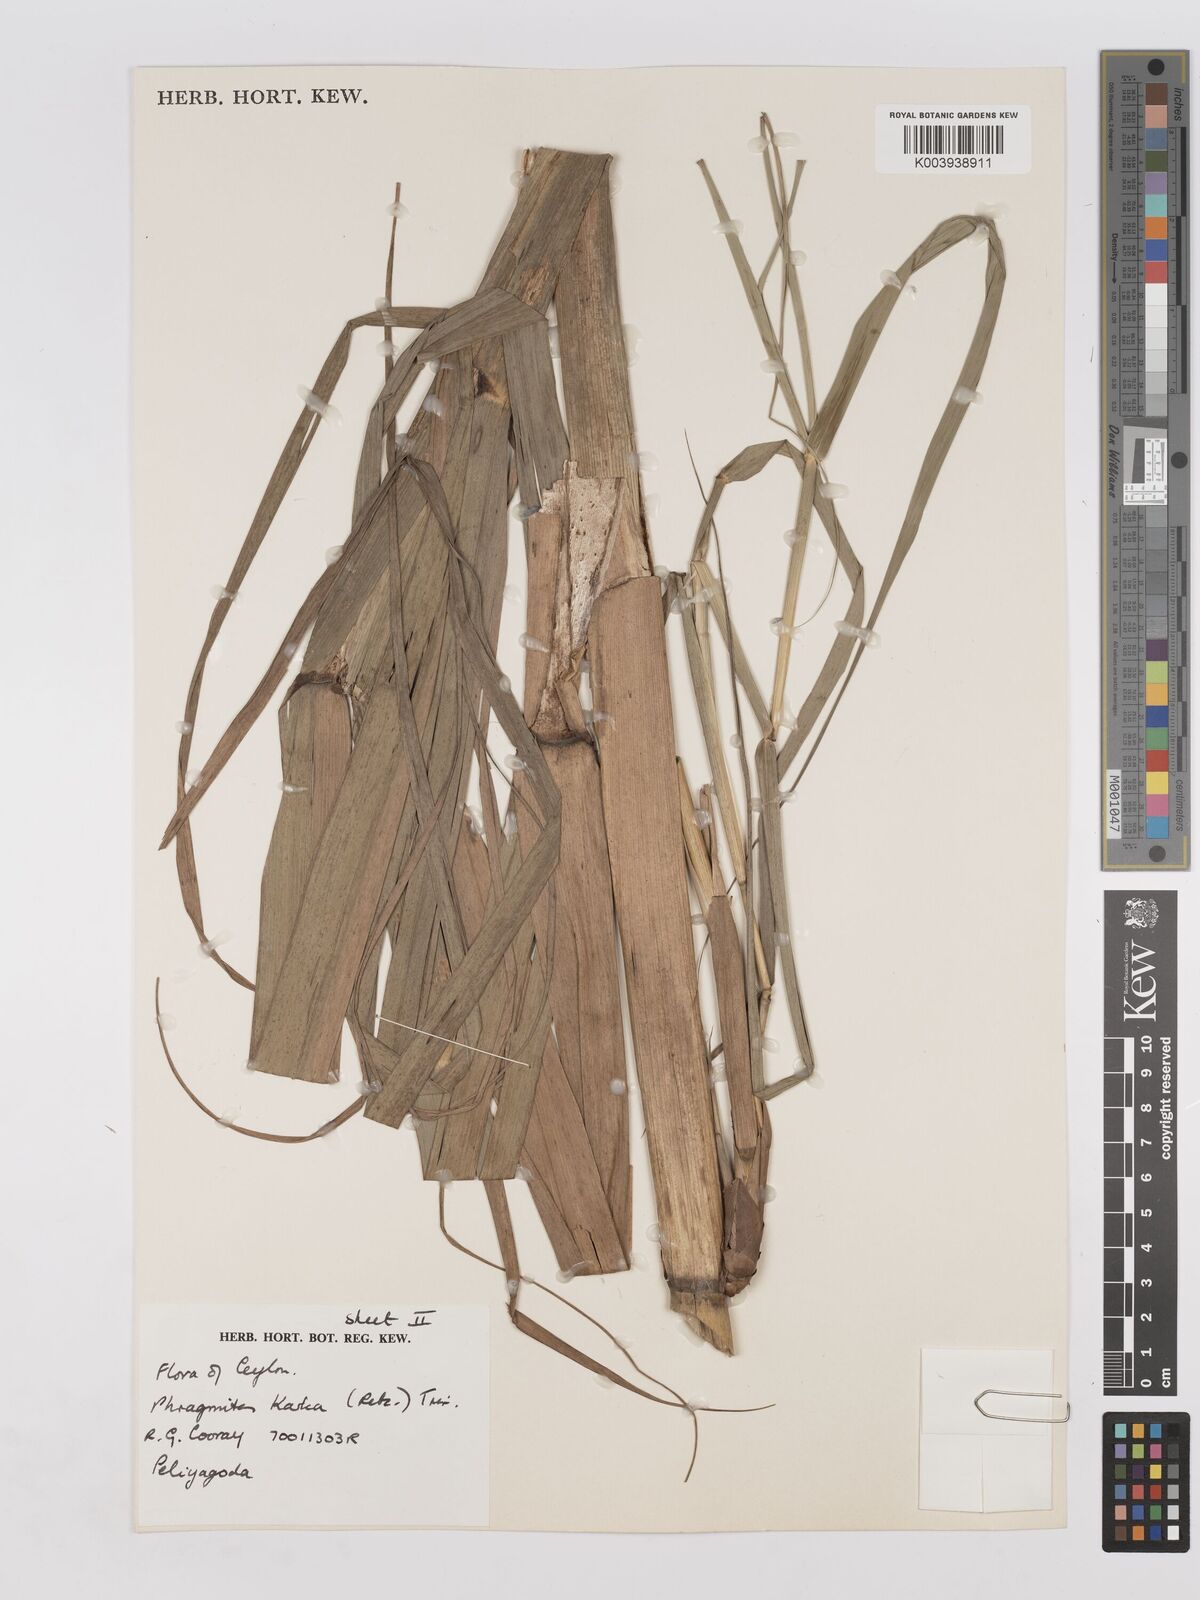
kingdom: Plantae
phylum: Tracheophyta
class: Liliopsida
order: Poales
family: Poaceae
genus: Phragmites
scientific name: Phragmites karka
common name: Tropical reed
